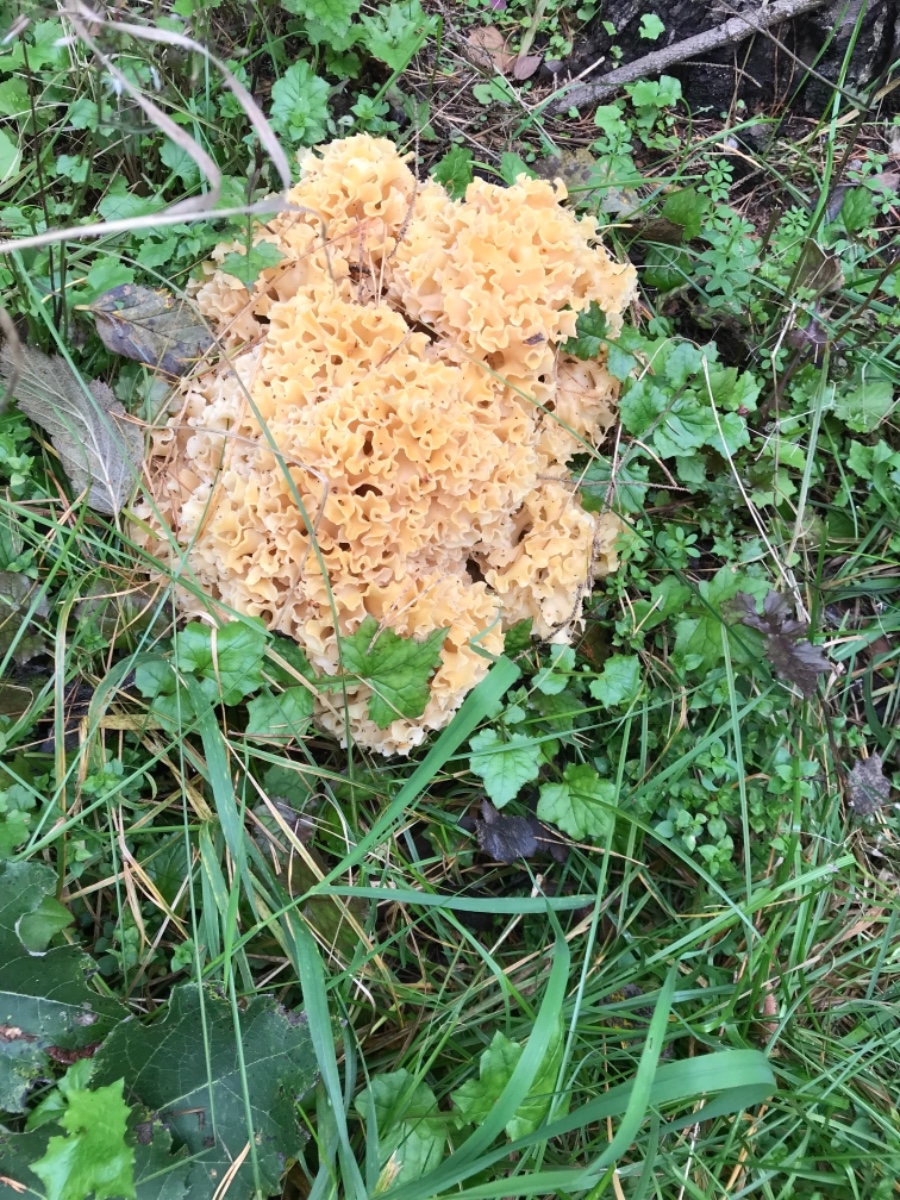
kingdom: Fungi
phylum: Basidiomycota
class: Agaricomycetes
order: Polyporales
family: Sparassidaceae
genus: Sparassis
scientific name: Sparassis crispa
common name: kruset blomkålssvamp
